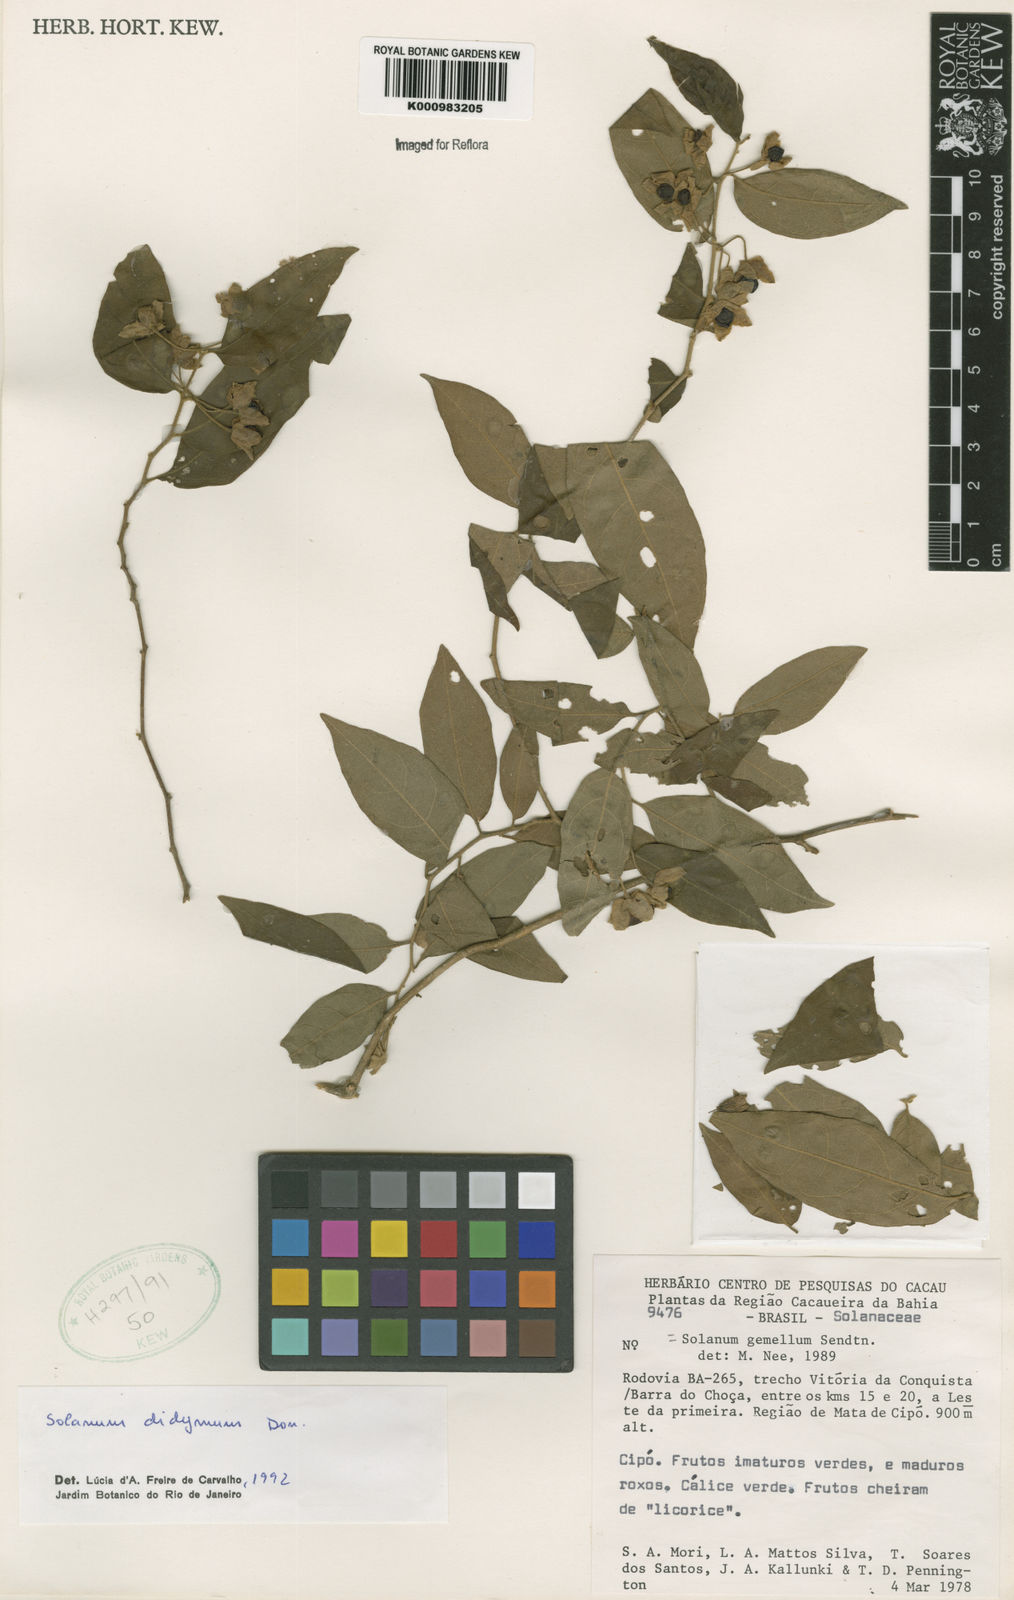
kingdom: Plantae
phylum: Tracheophyta
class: Magnoliopsida
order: Solanales
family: Solanaceae
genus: Solanum
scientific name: Solanum didymum
